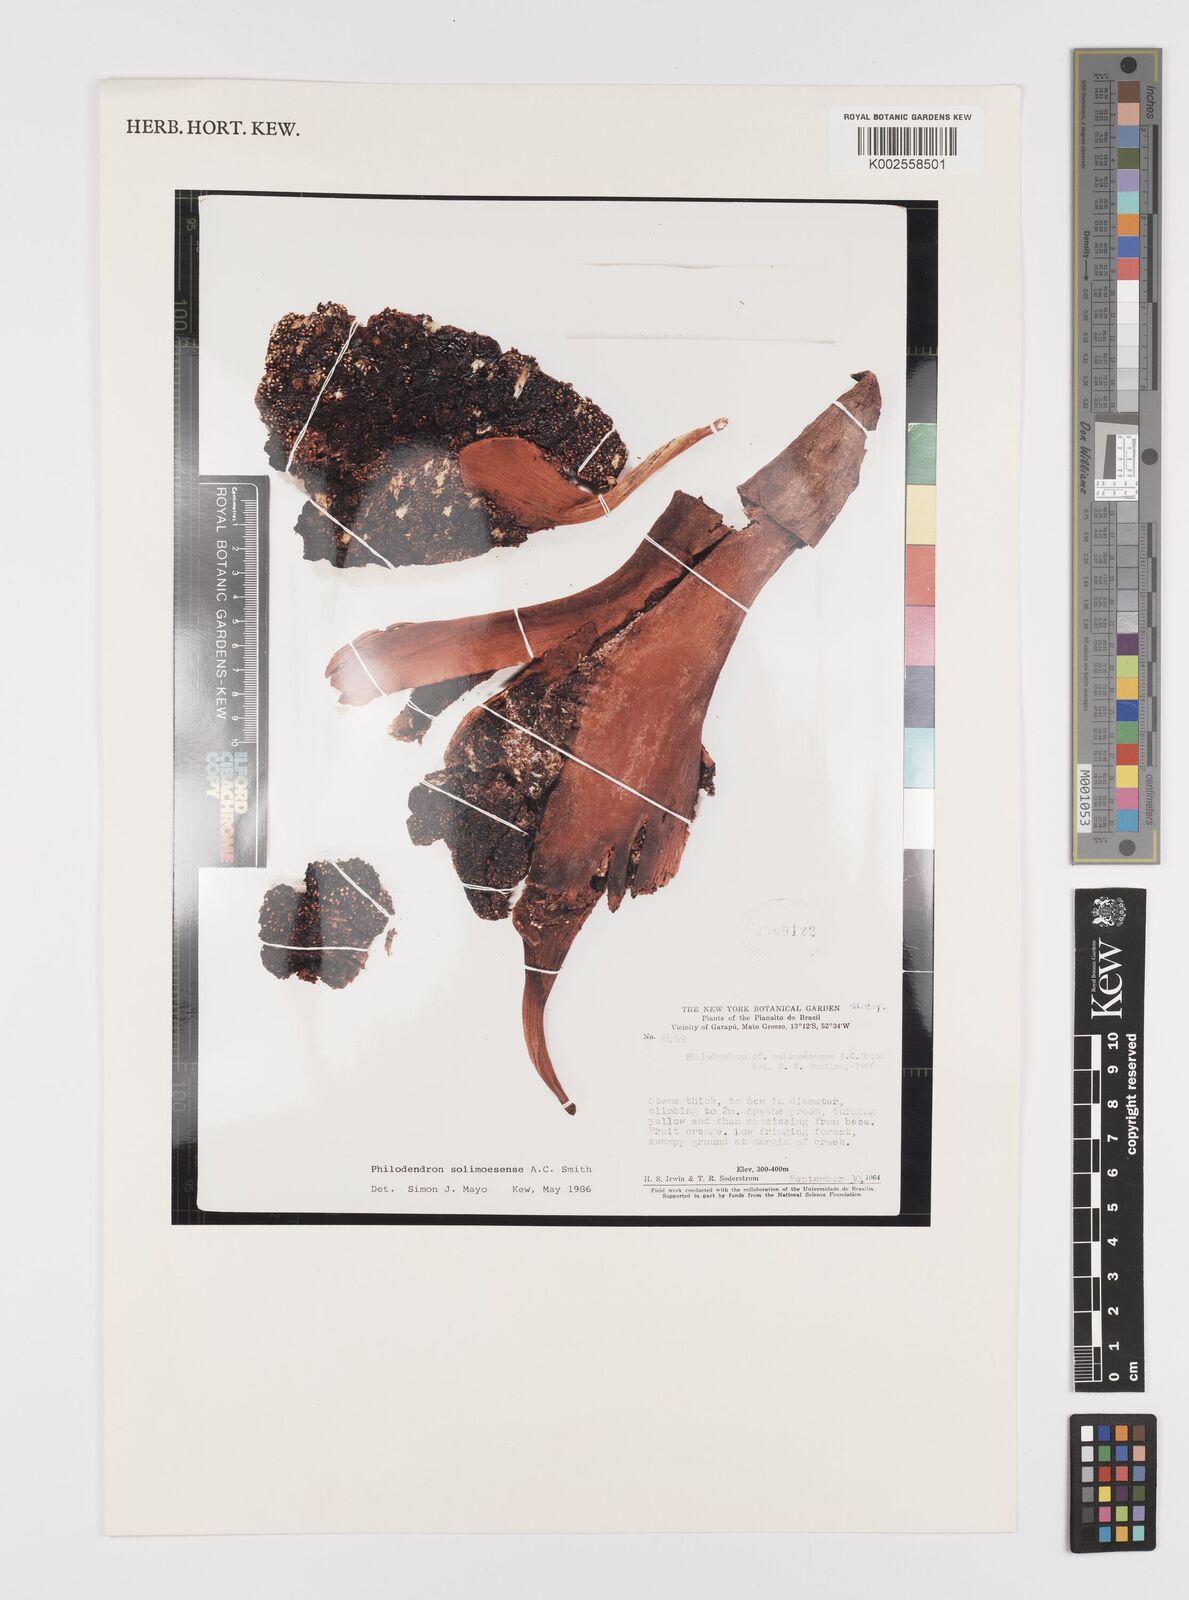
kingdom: Plantae
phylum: Tracheophyta
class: Liliopsida
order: Alismatales
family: Araceae
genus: Thaumatophyllum
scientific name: Thaumatophyllum solimoesense
